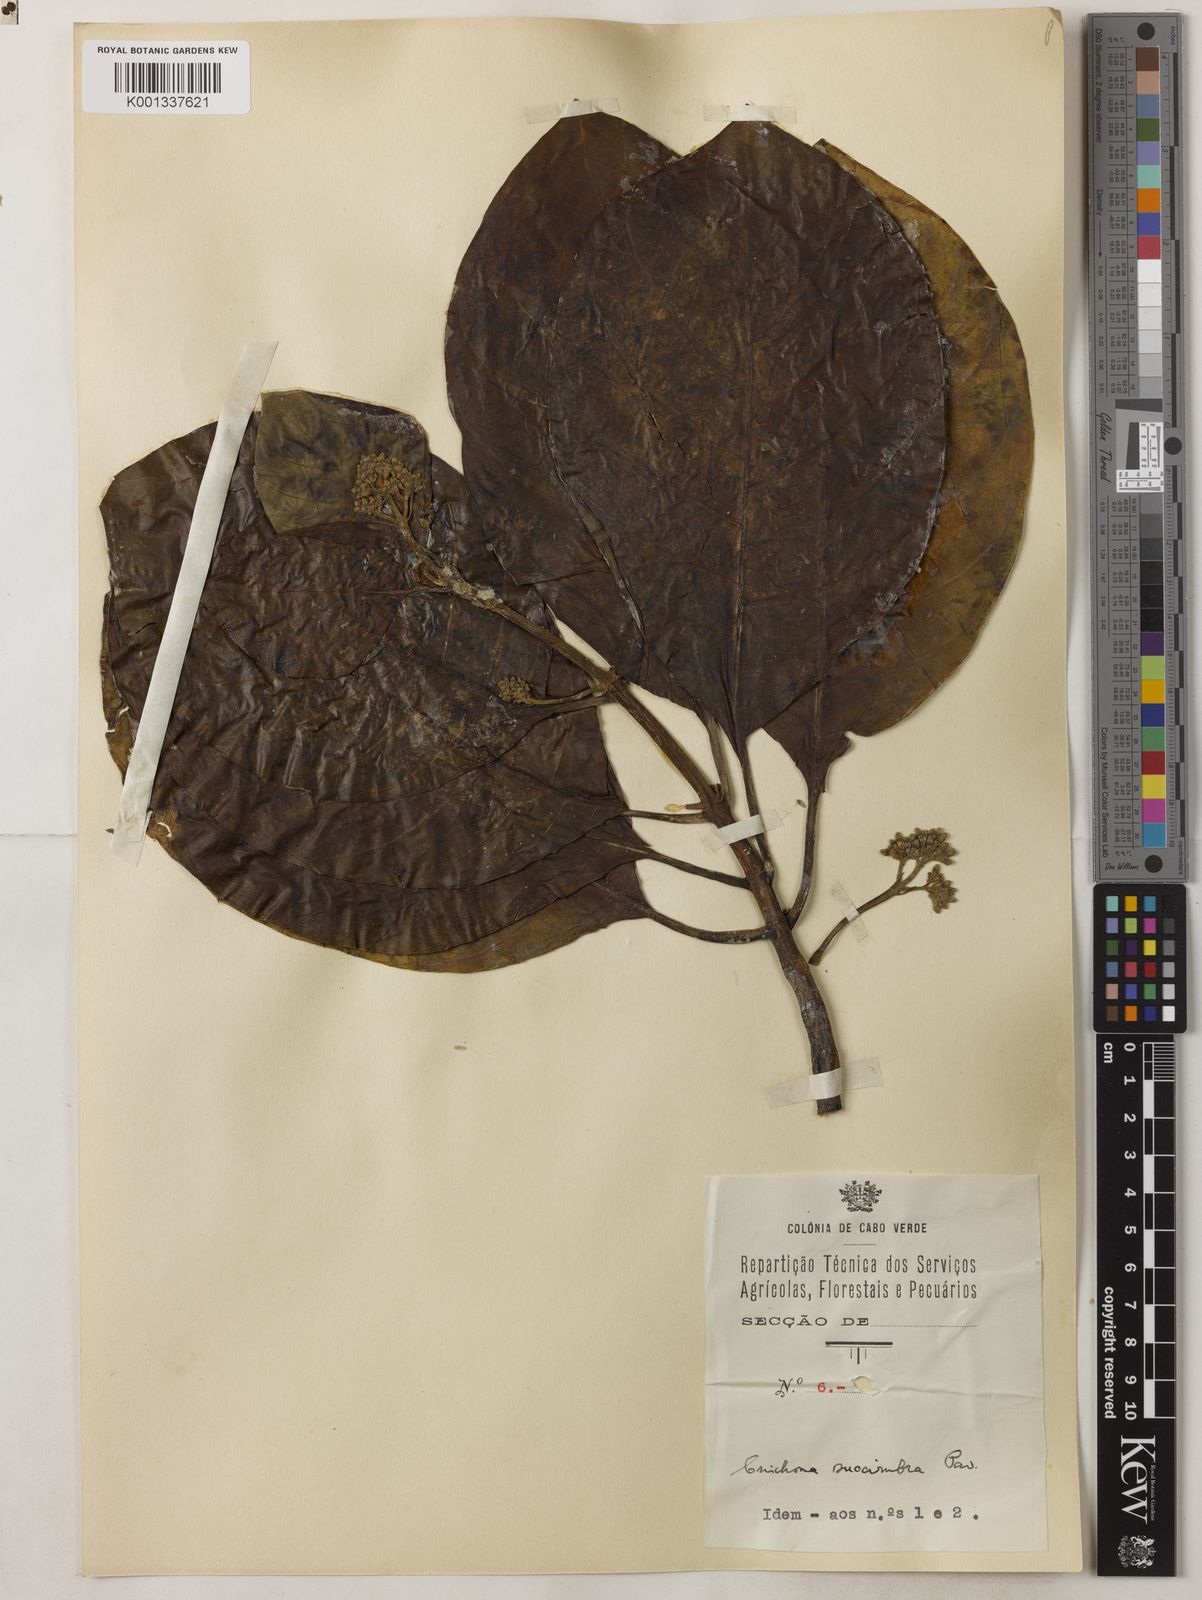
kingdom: Plantae
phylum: Tracheophyta
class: Magnoliopsida
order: Gentianales
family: Rubiaceae
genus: Cinchona
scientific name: Cinchona pubescens
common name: Quinine
